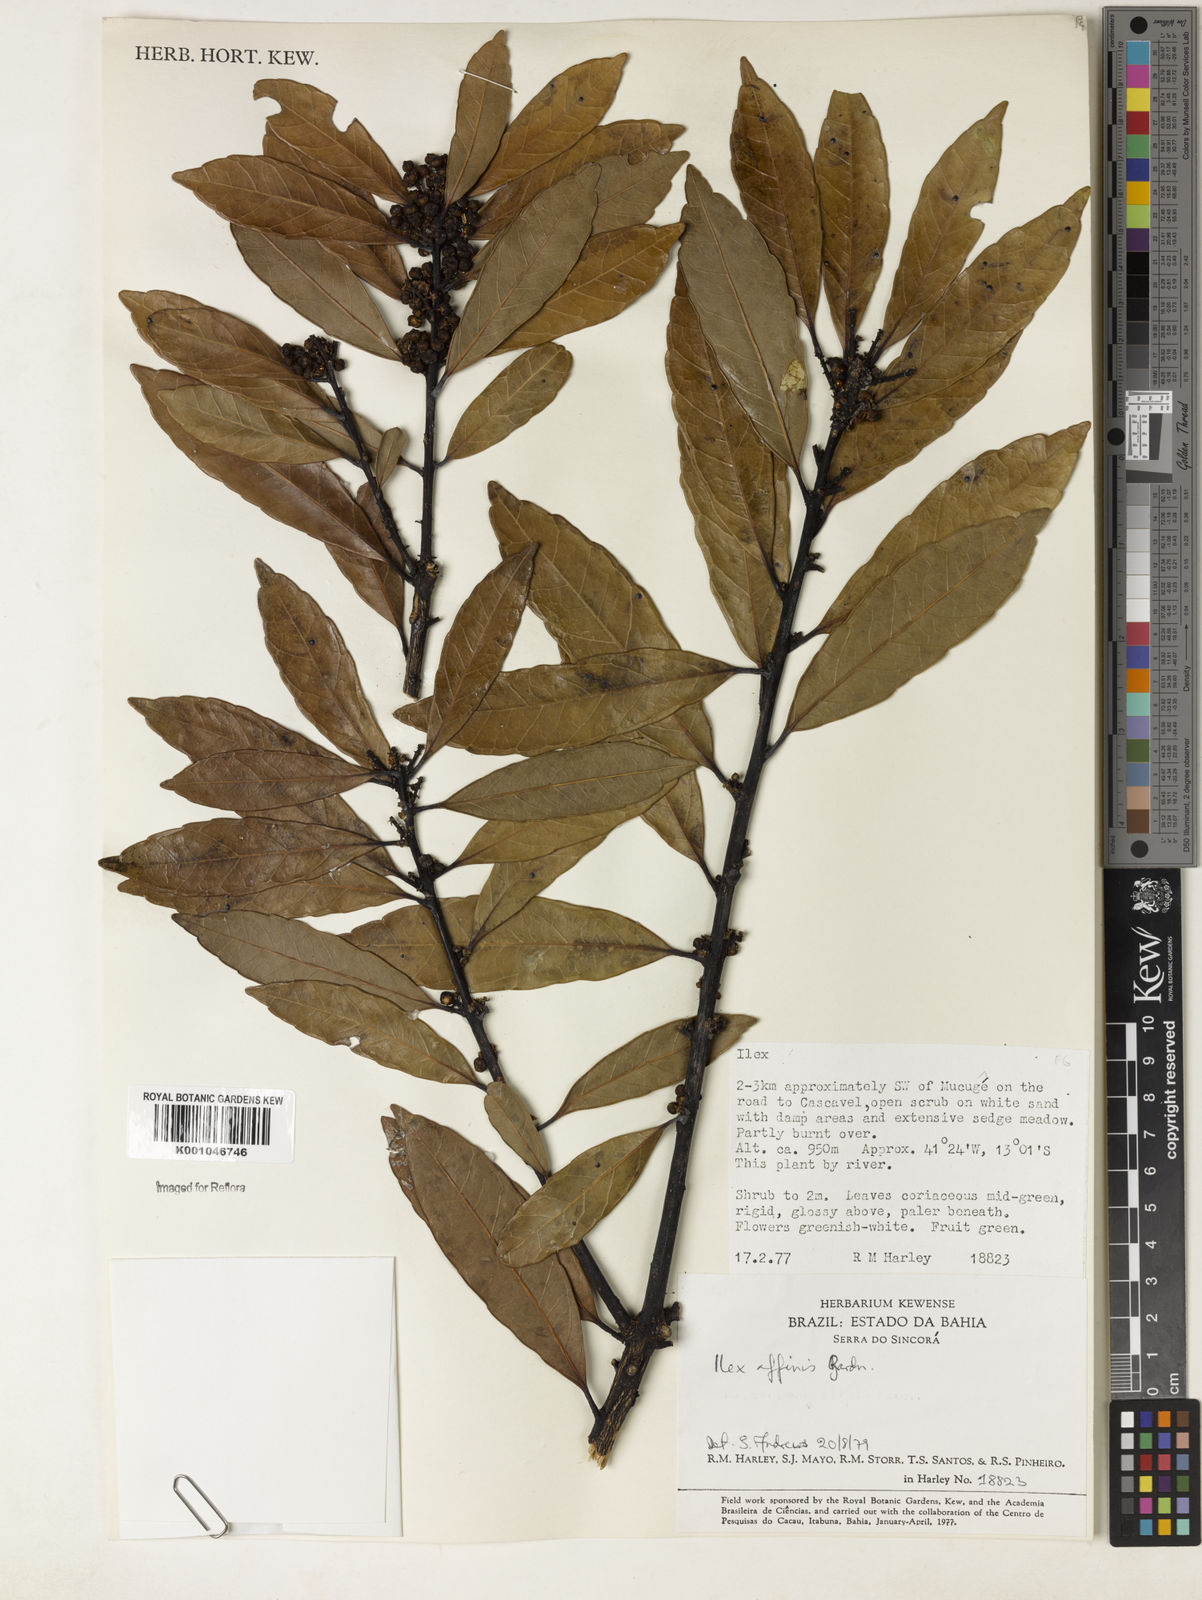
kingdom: Plantae
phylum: Tracheophyta
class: Magnoliopsida
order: Aquifoliales
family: Aquifoliaceae
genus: Ilex
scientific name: Ilex affinis
